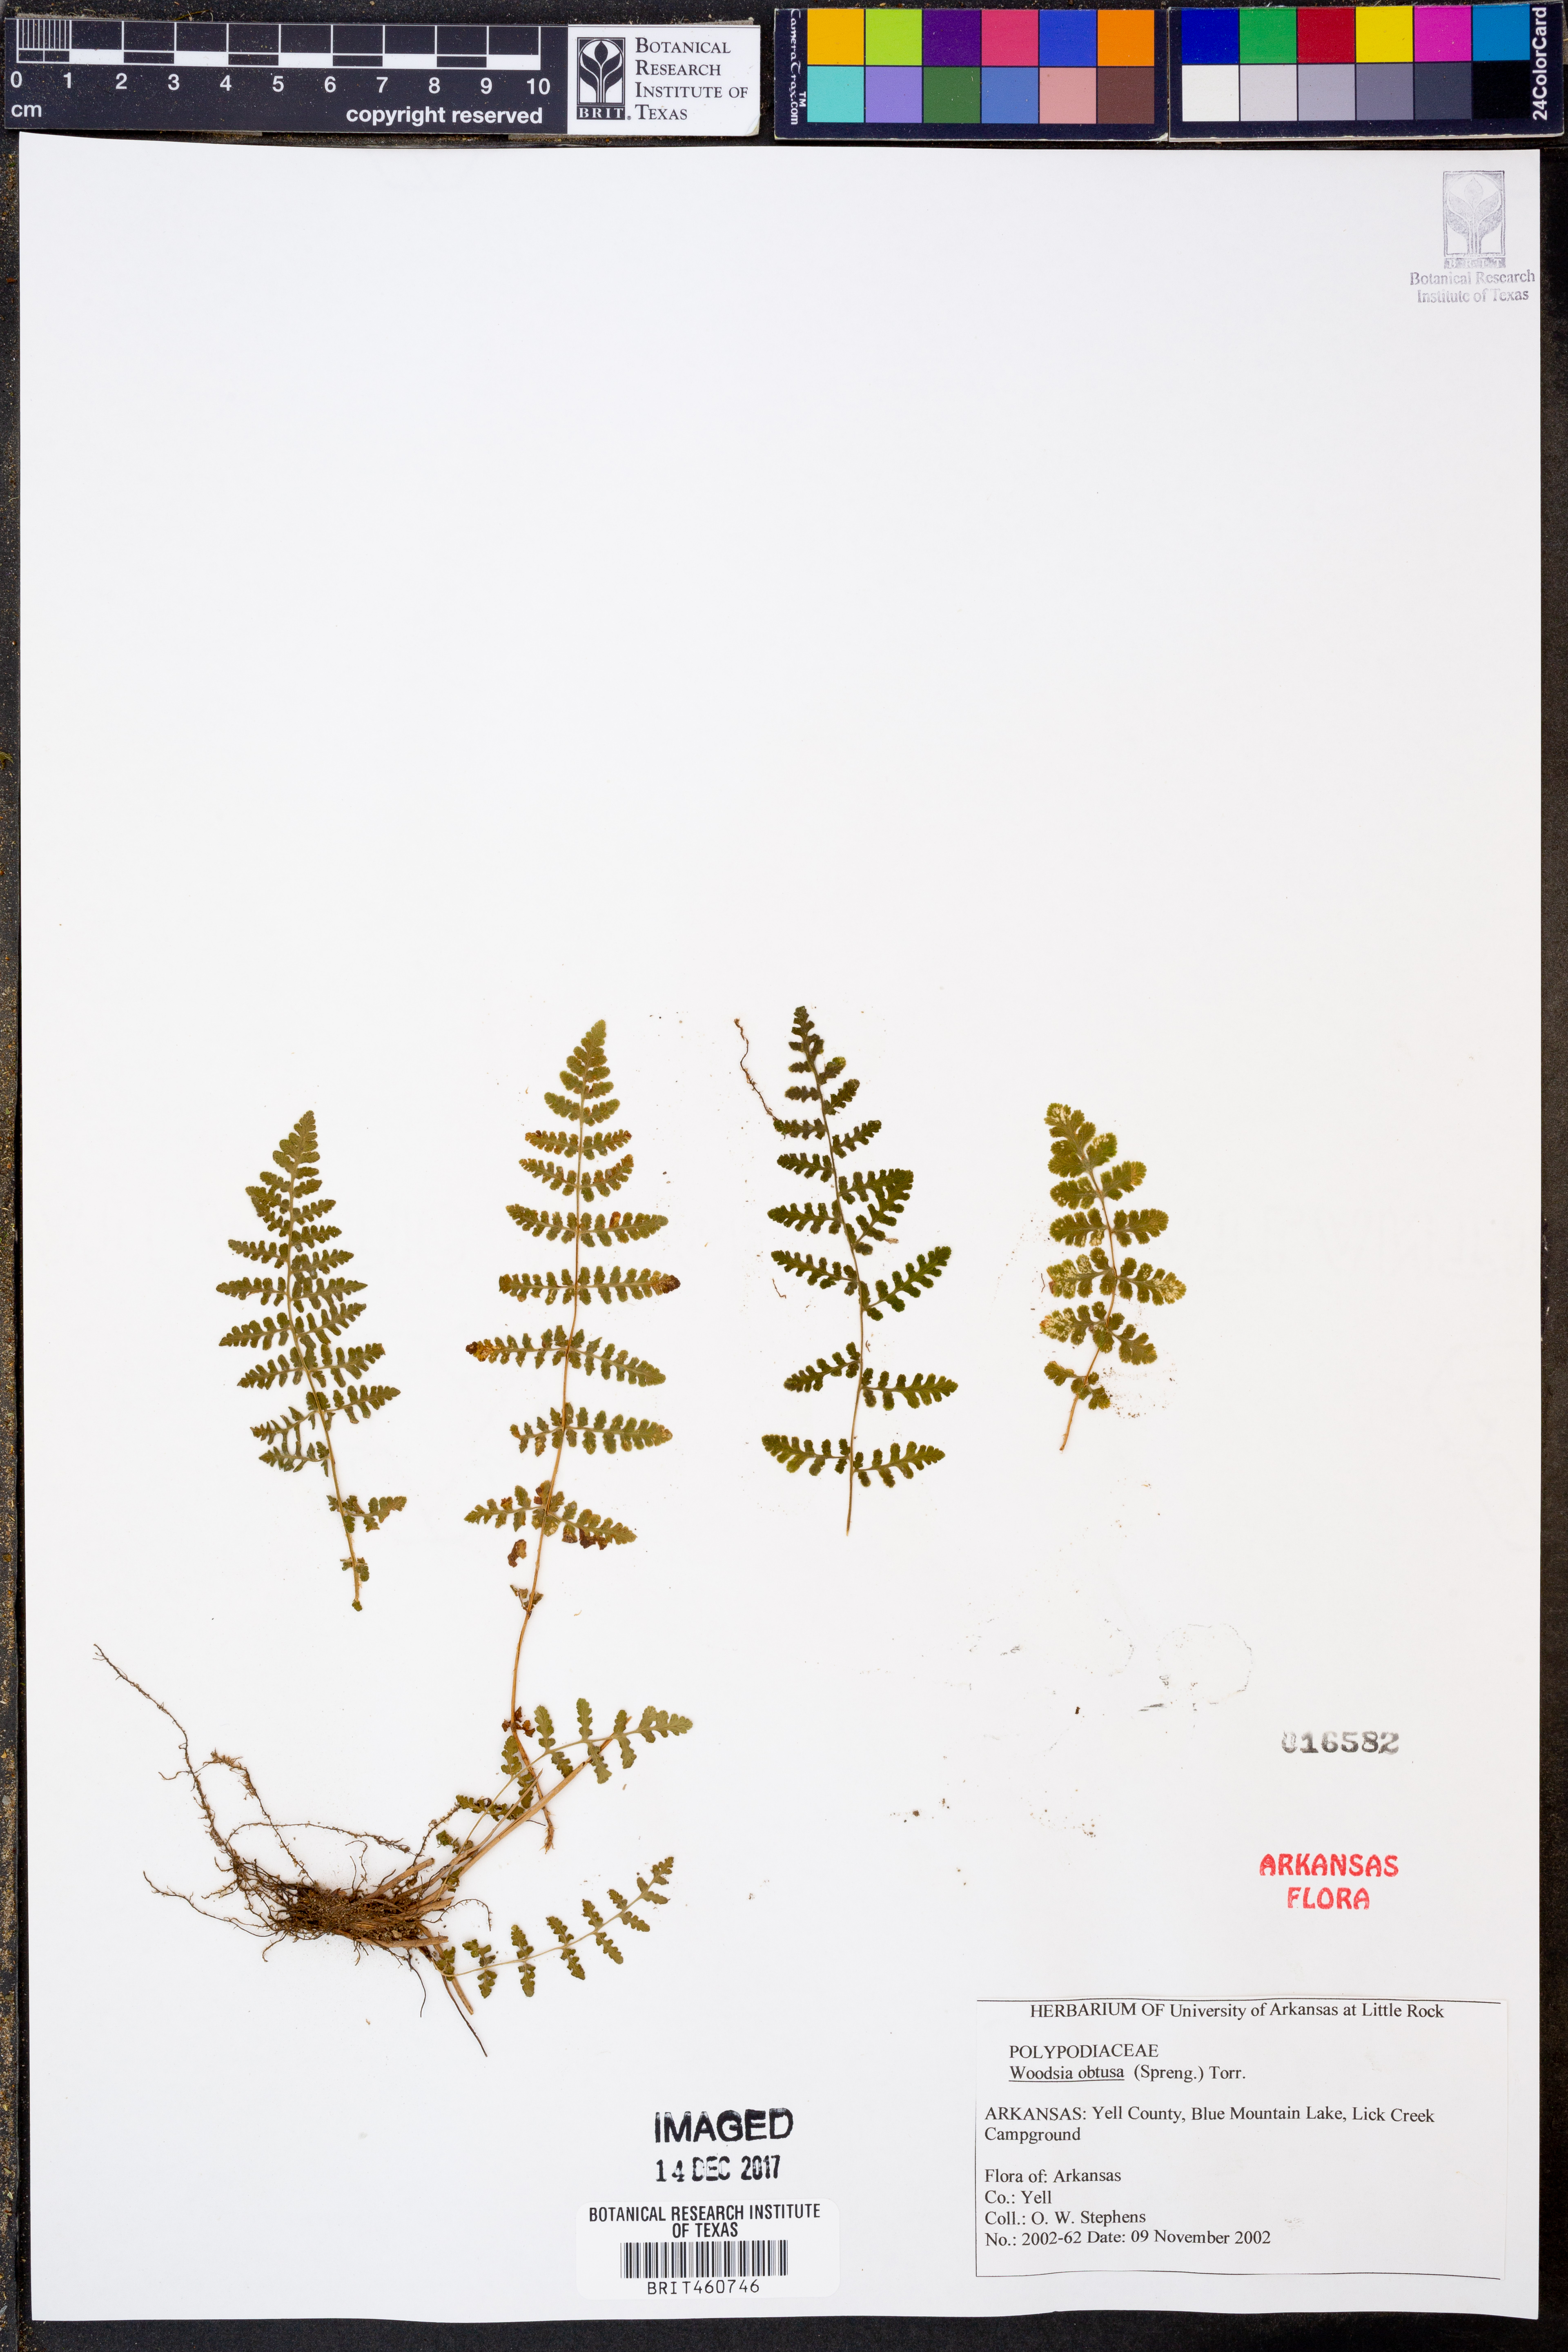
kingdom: Plantae
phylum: Tracheophyta
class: Polypodiopsida
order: Polypodiales
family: Woodsiaceae
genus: Physematium
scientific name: Physematium obtusum
